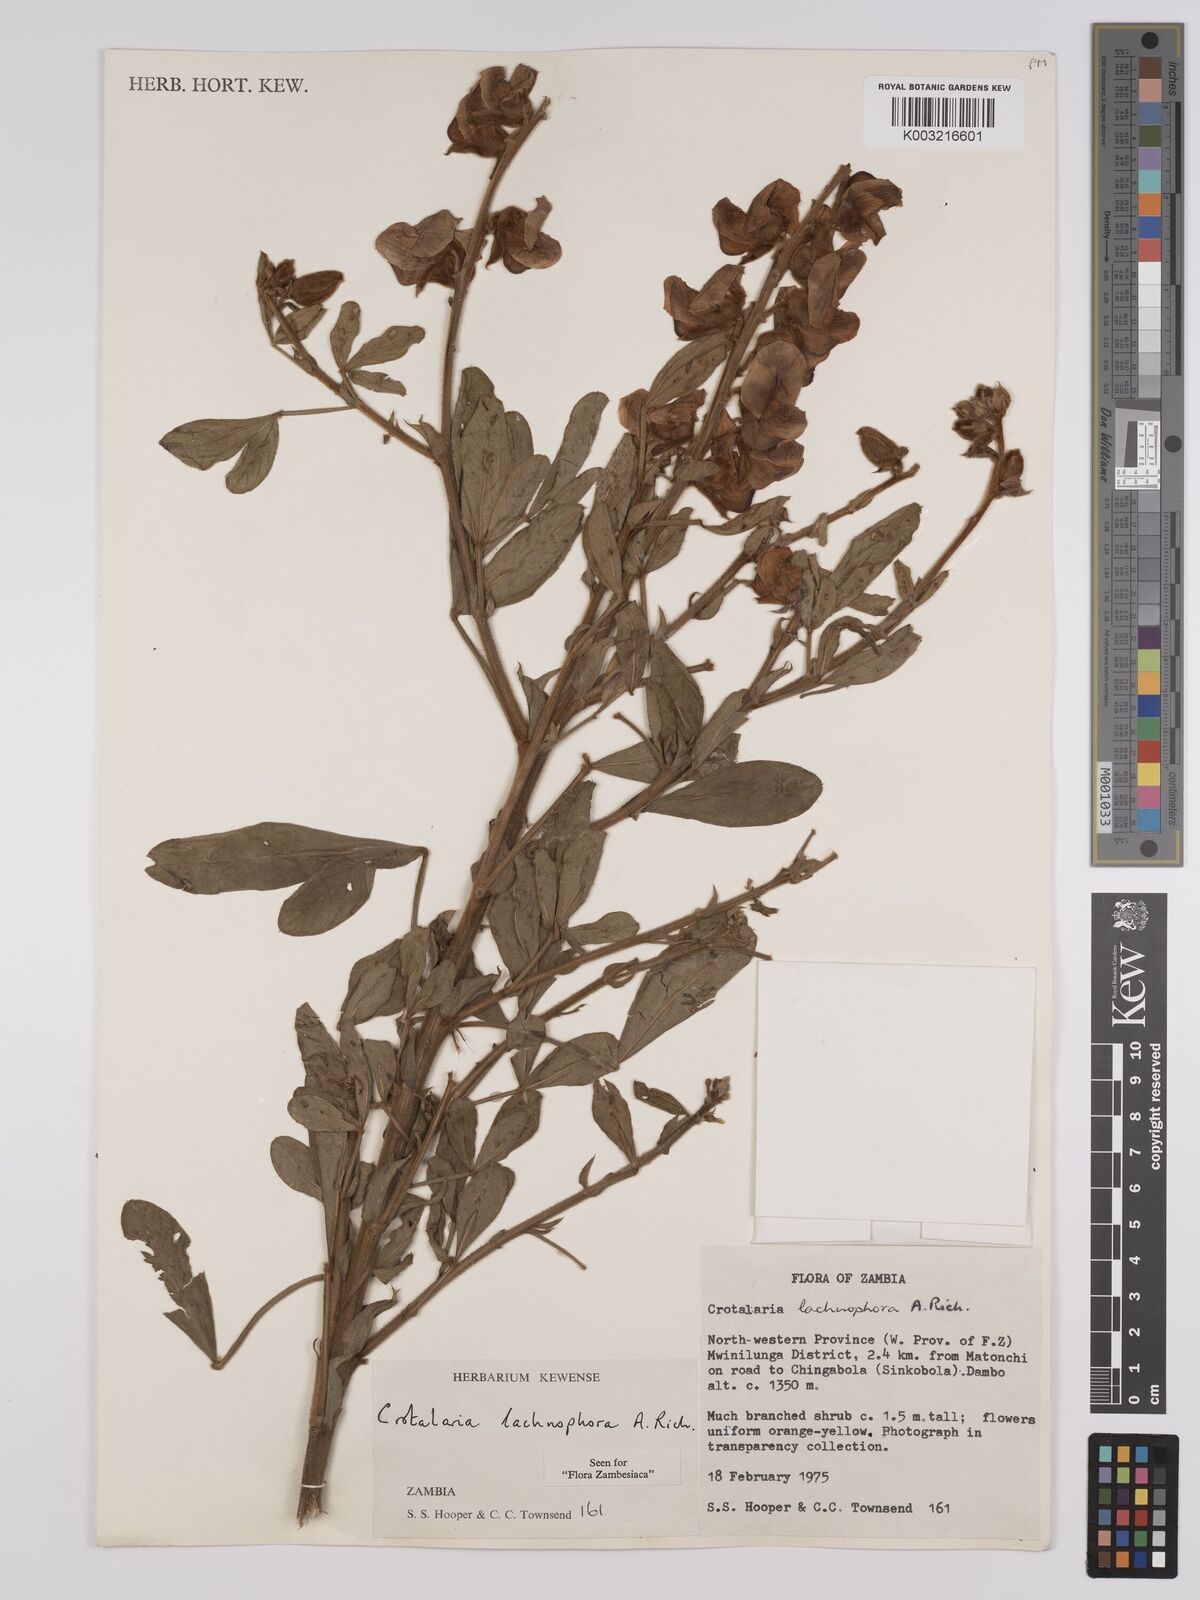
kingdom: Plantae
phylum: Tracheophyta
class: Magnoliopsida
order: Fabales
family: Fabaceae
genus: Crotalaria
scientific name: Crotalaria lachnophora
